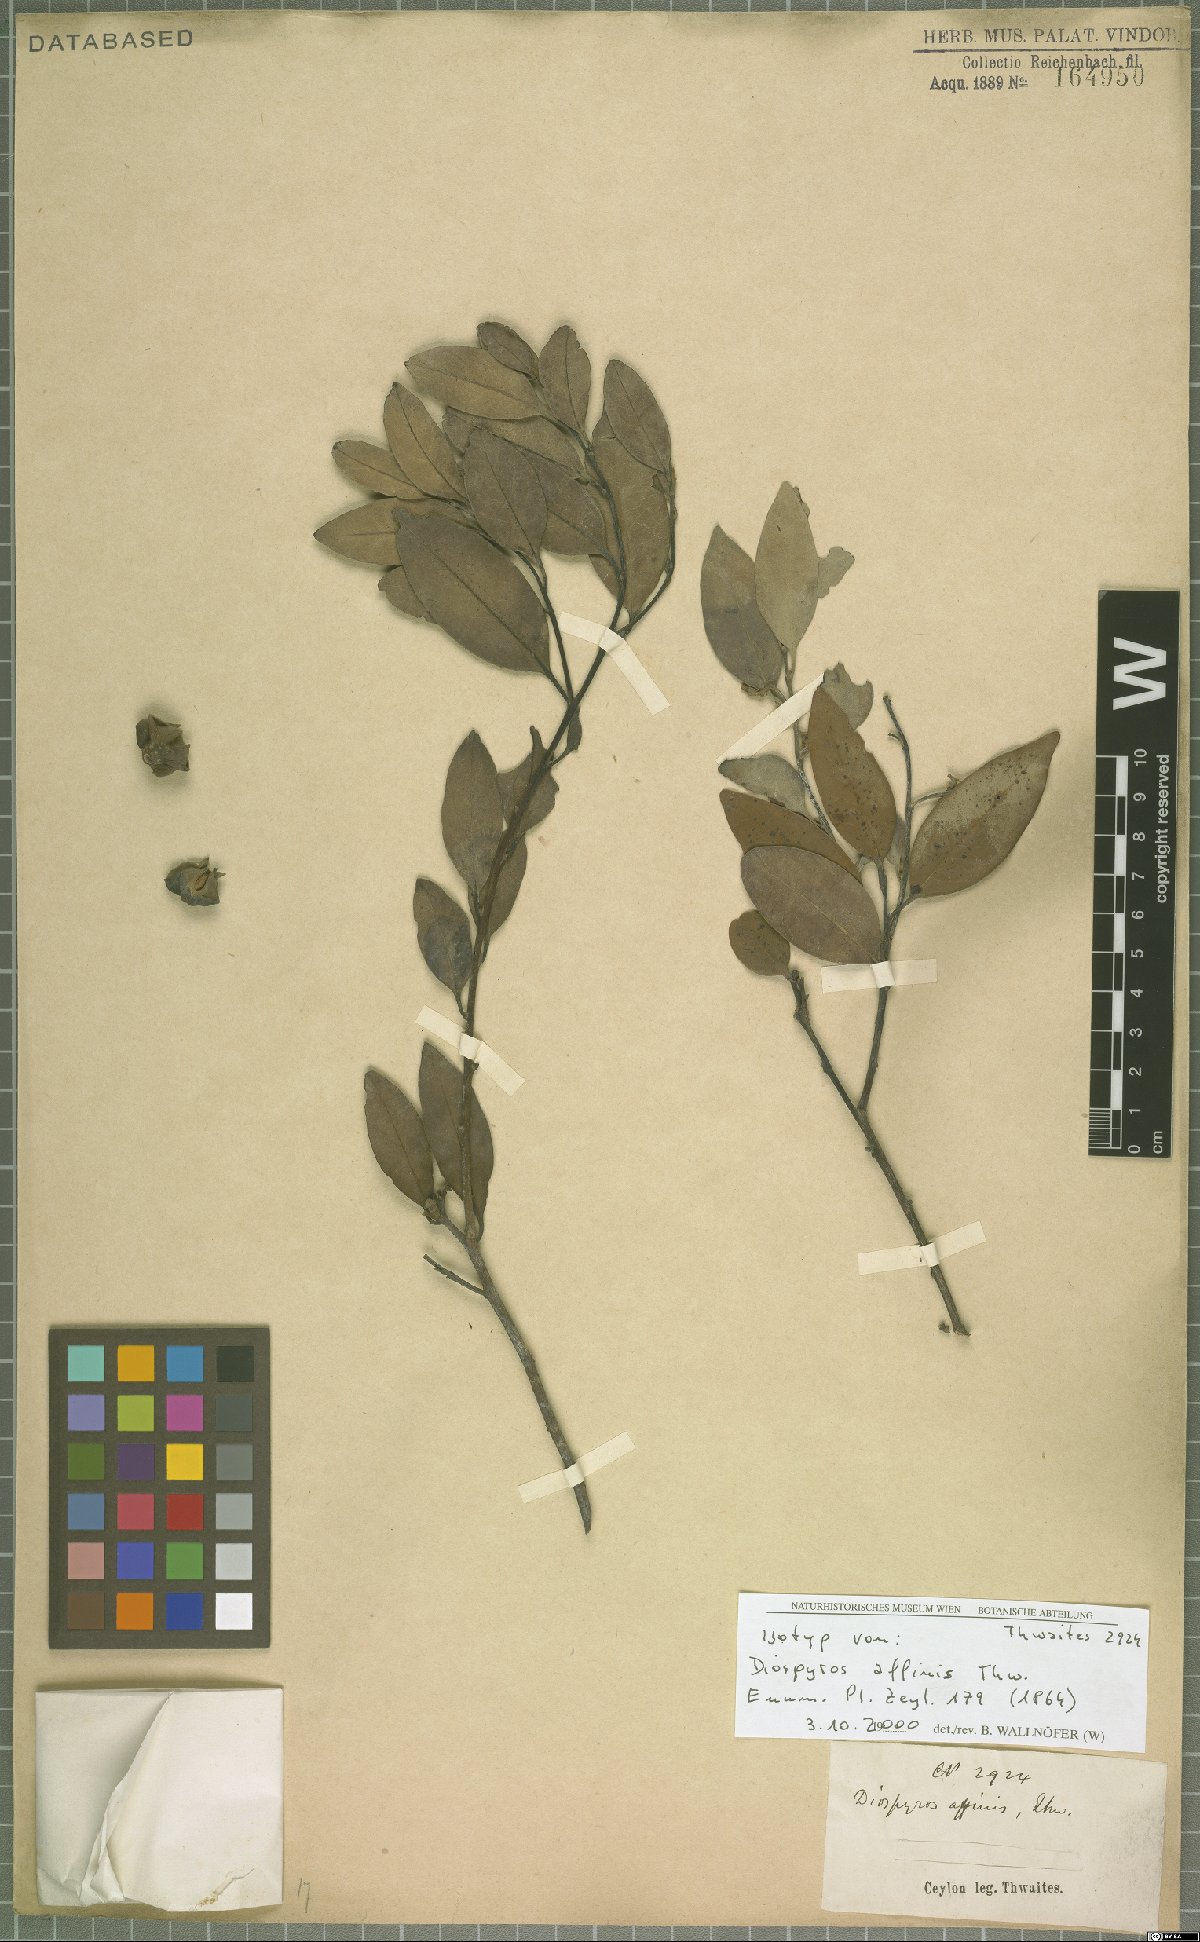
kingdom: Plantae
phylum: Tracheophyta
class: Magnoliopsida
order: Ericales
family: Ebenaceae
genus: Diospyros
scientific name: Diospyros affinis
